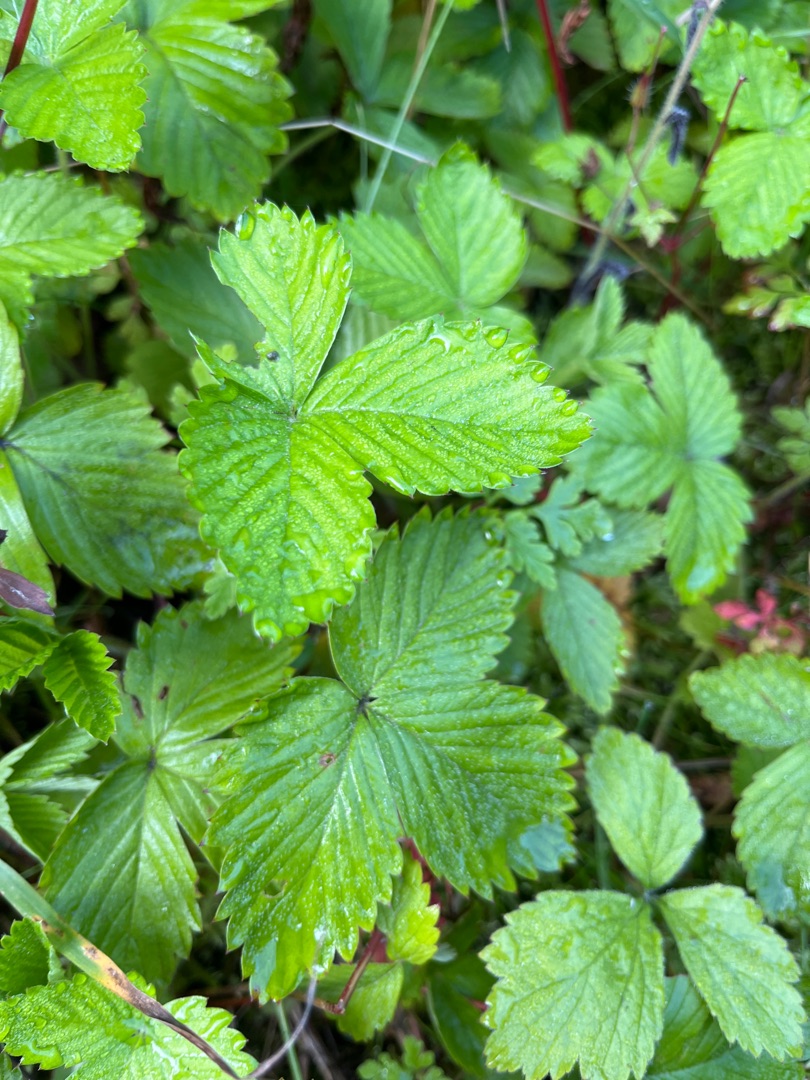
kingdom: Plantae
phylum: Tracheophyta
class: Magnoliopsida
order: Rosales
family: Rosaceae
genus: Fragaria
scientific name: Fragaria vesca
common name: Skov-jordbær
